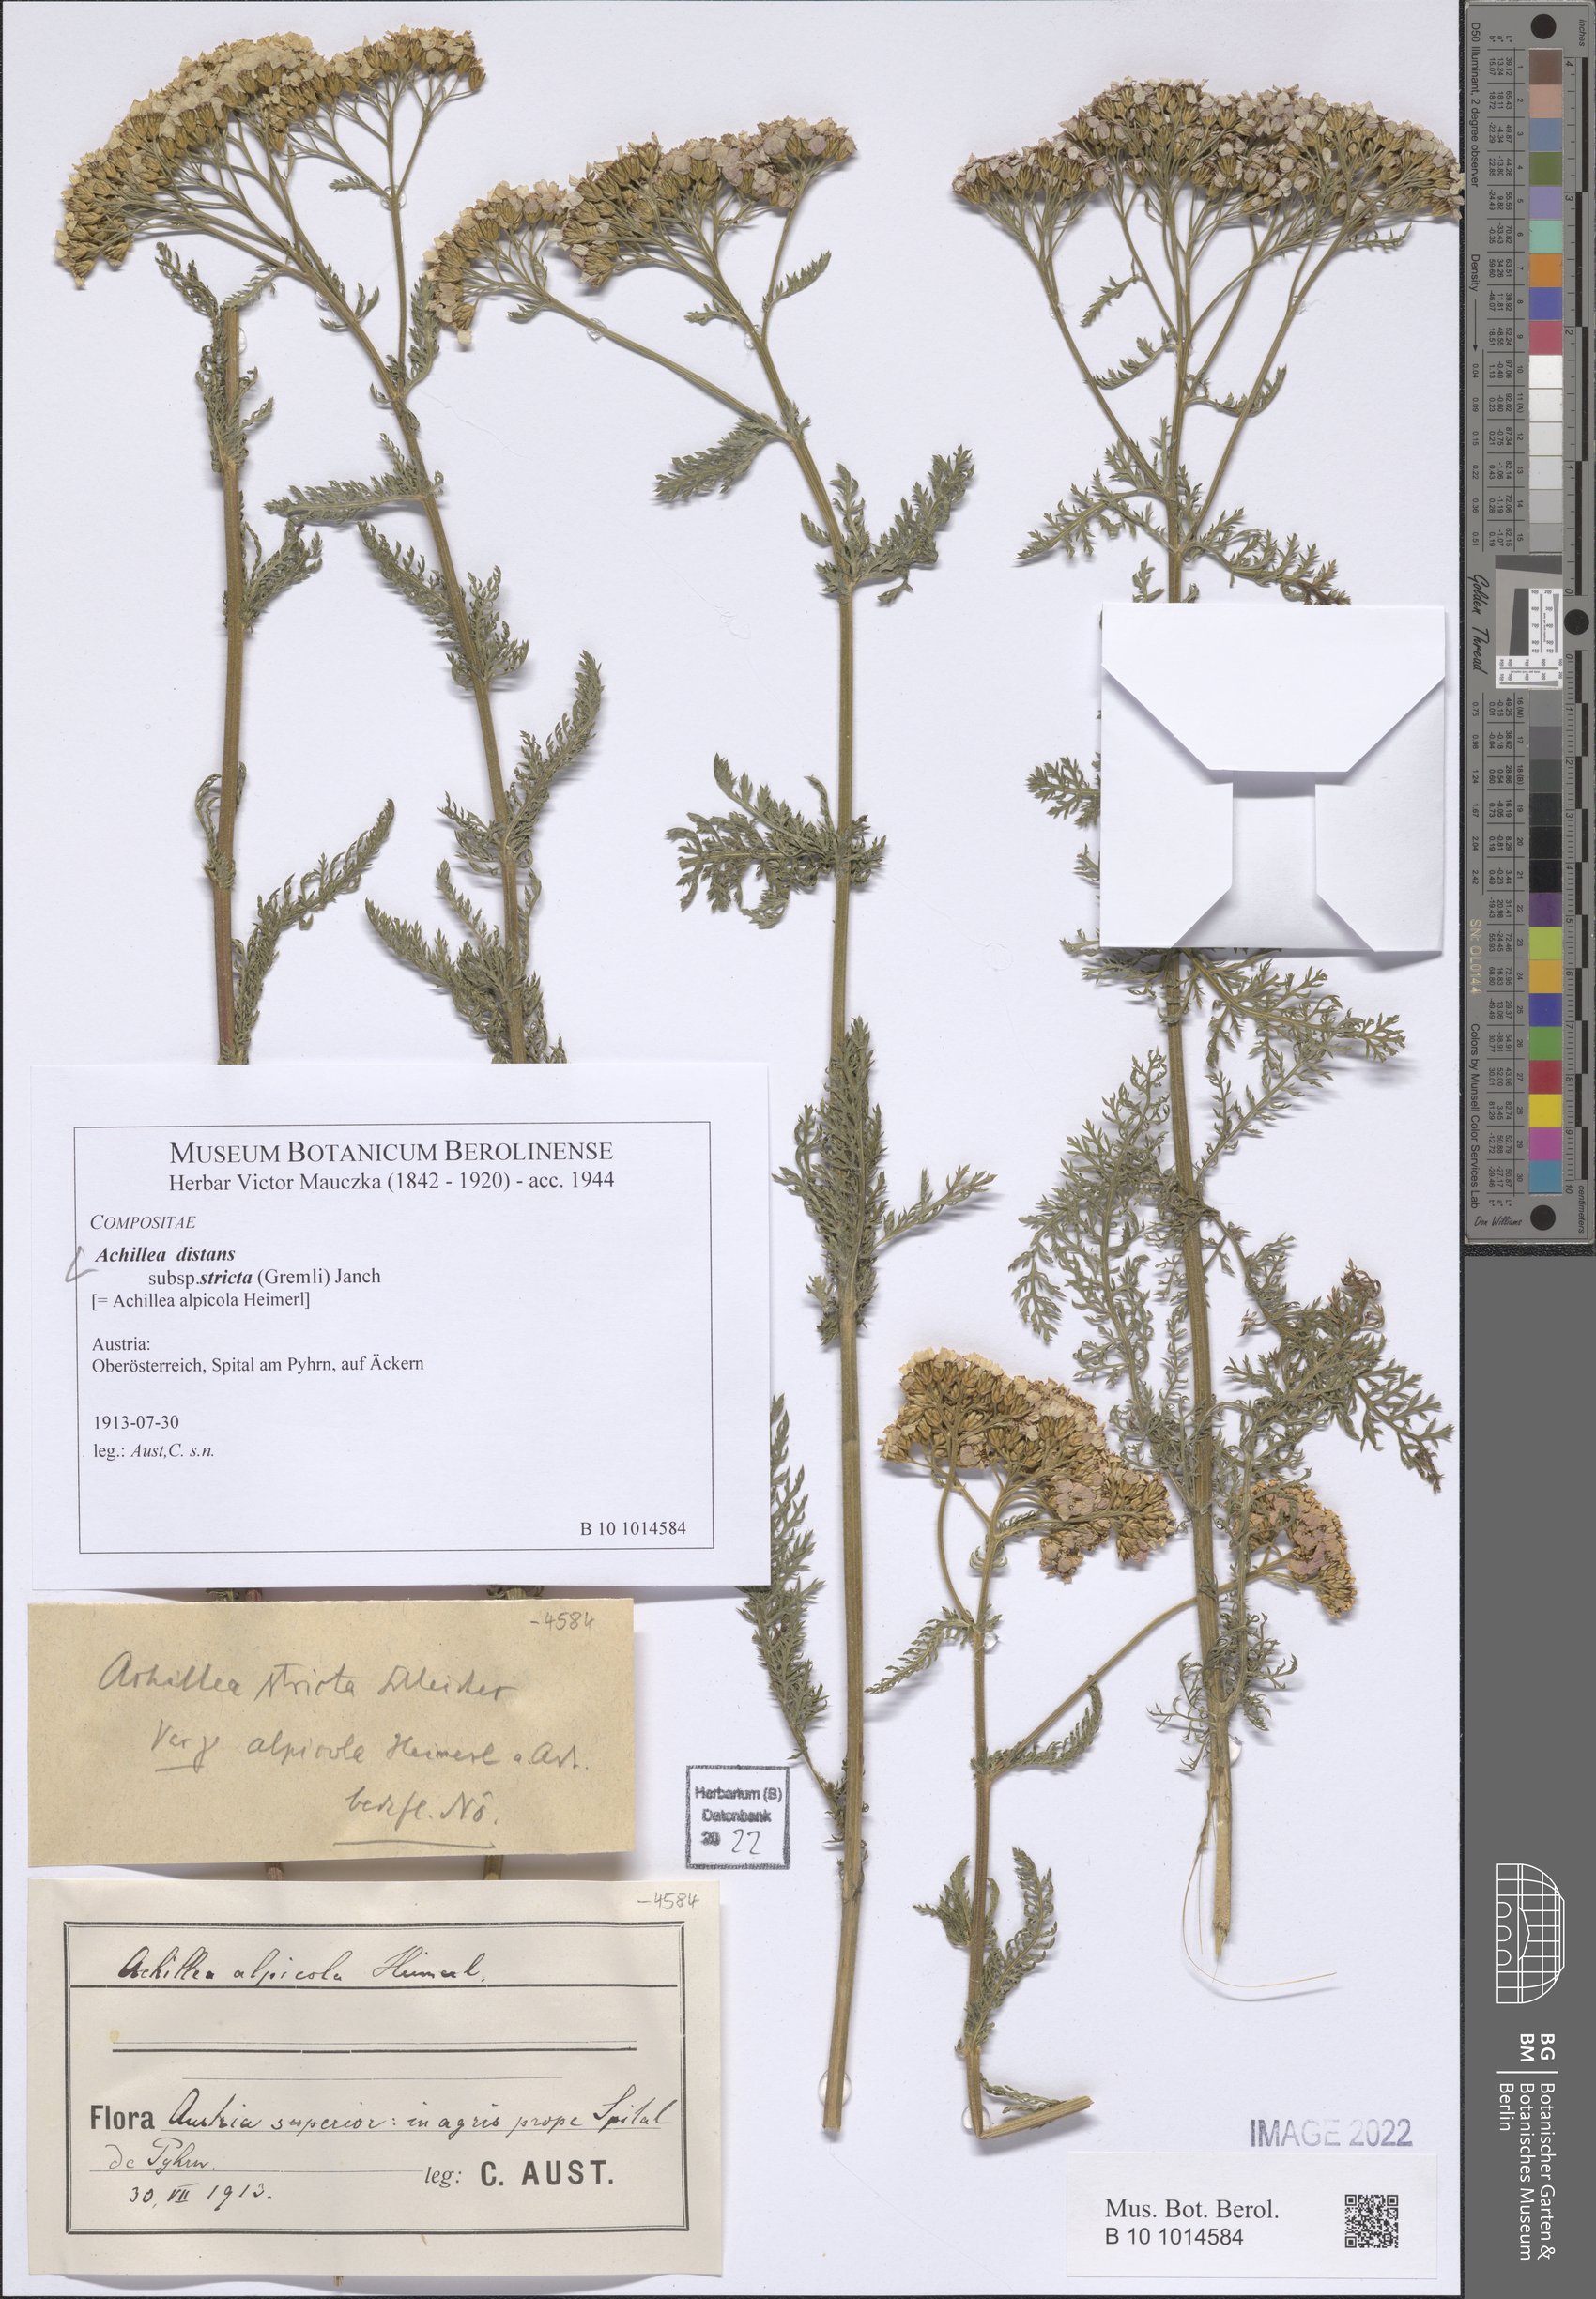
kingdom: Plantae
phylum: Tracheophyta
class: Magnoliopsida
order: Asterales
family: Asteraceae
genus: Achillea
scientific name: Achillea distans
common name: Tall yarrow
